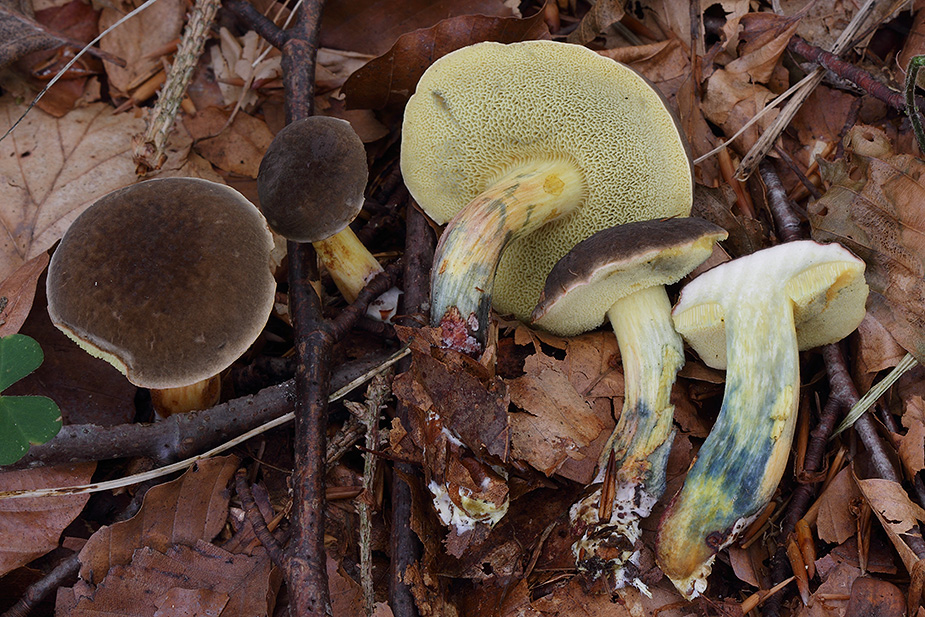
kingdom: Fungi
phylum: Basidiomycota
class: Agaricomycetes
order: Boletales
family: Boletaceae
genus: Xerocomellus
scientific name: Xerocomellus cisalpinus
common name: finsprukken rørhat
